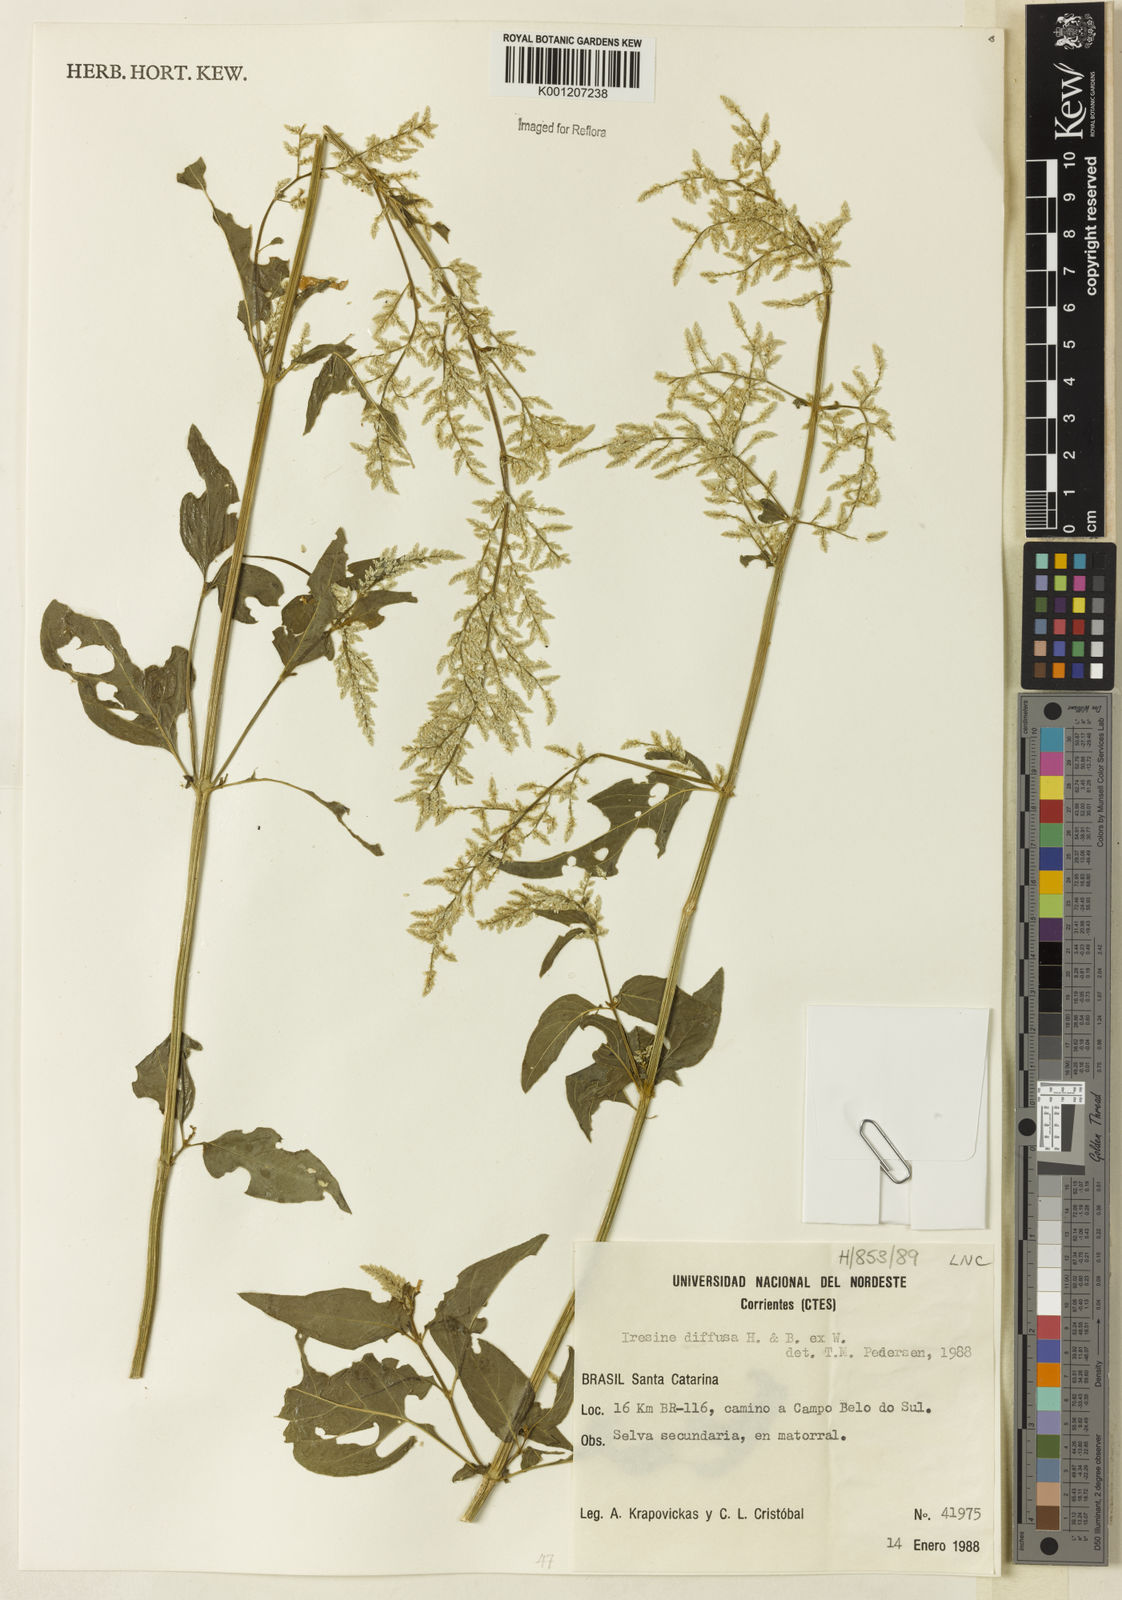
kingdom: Plantae
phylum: Tracheophyta
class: Magnoliopsida
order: Caryophyllales
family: Amaranthaceae
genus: Iresine
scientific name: Iresine rhizomatosa
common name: Juda's-bush
